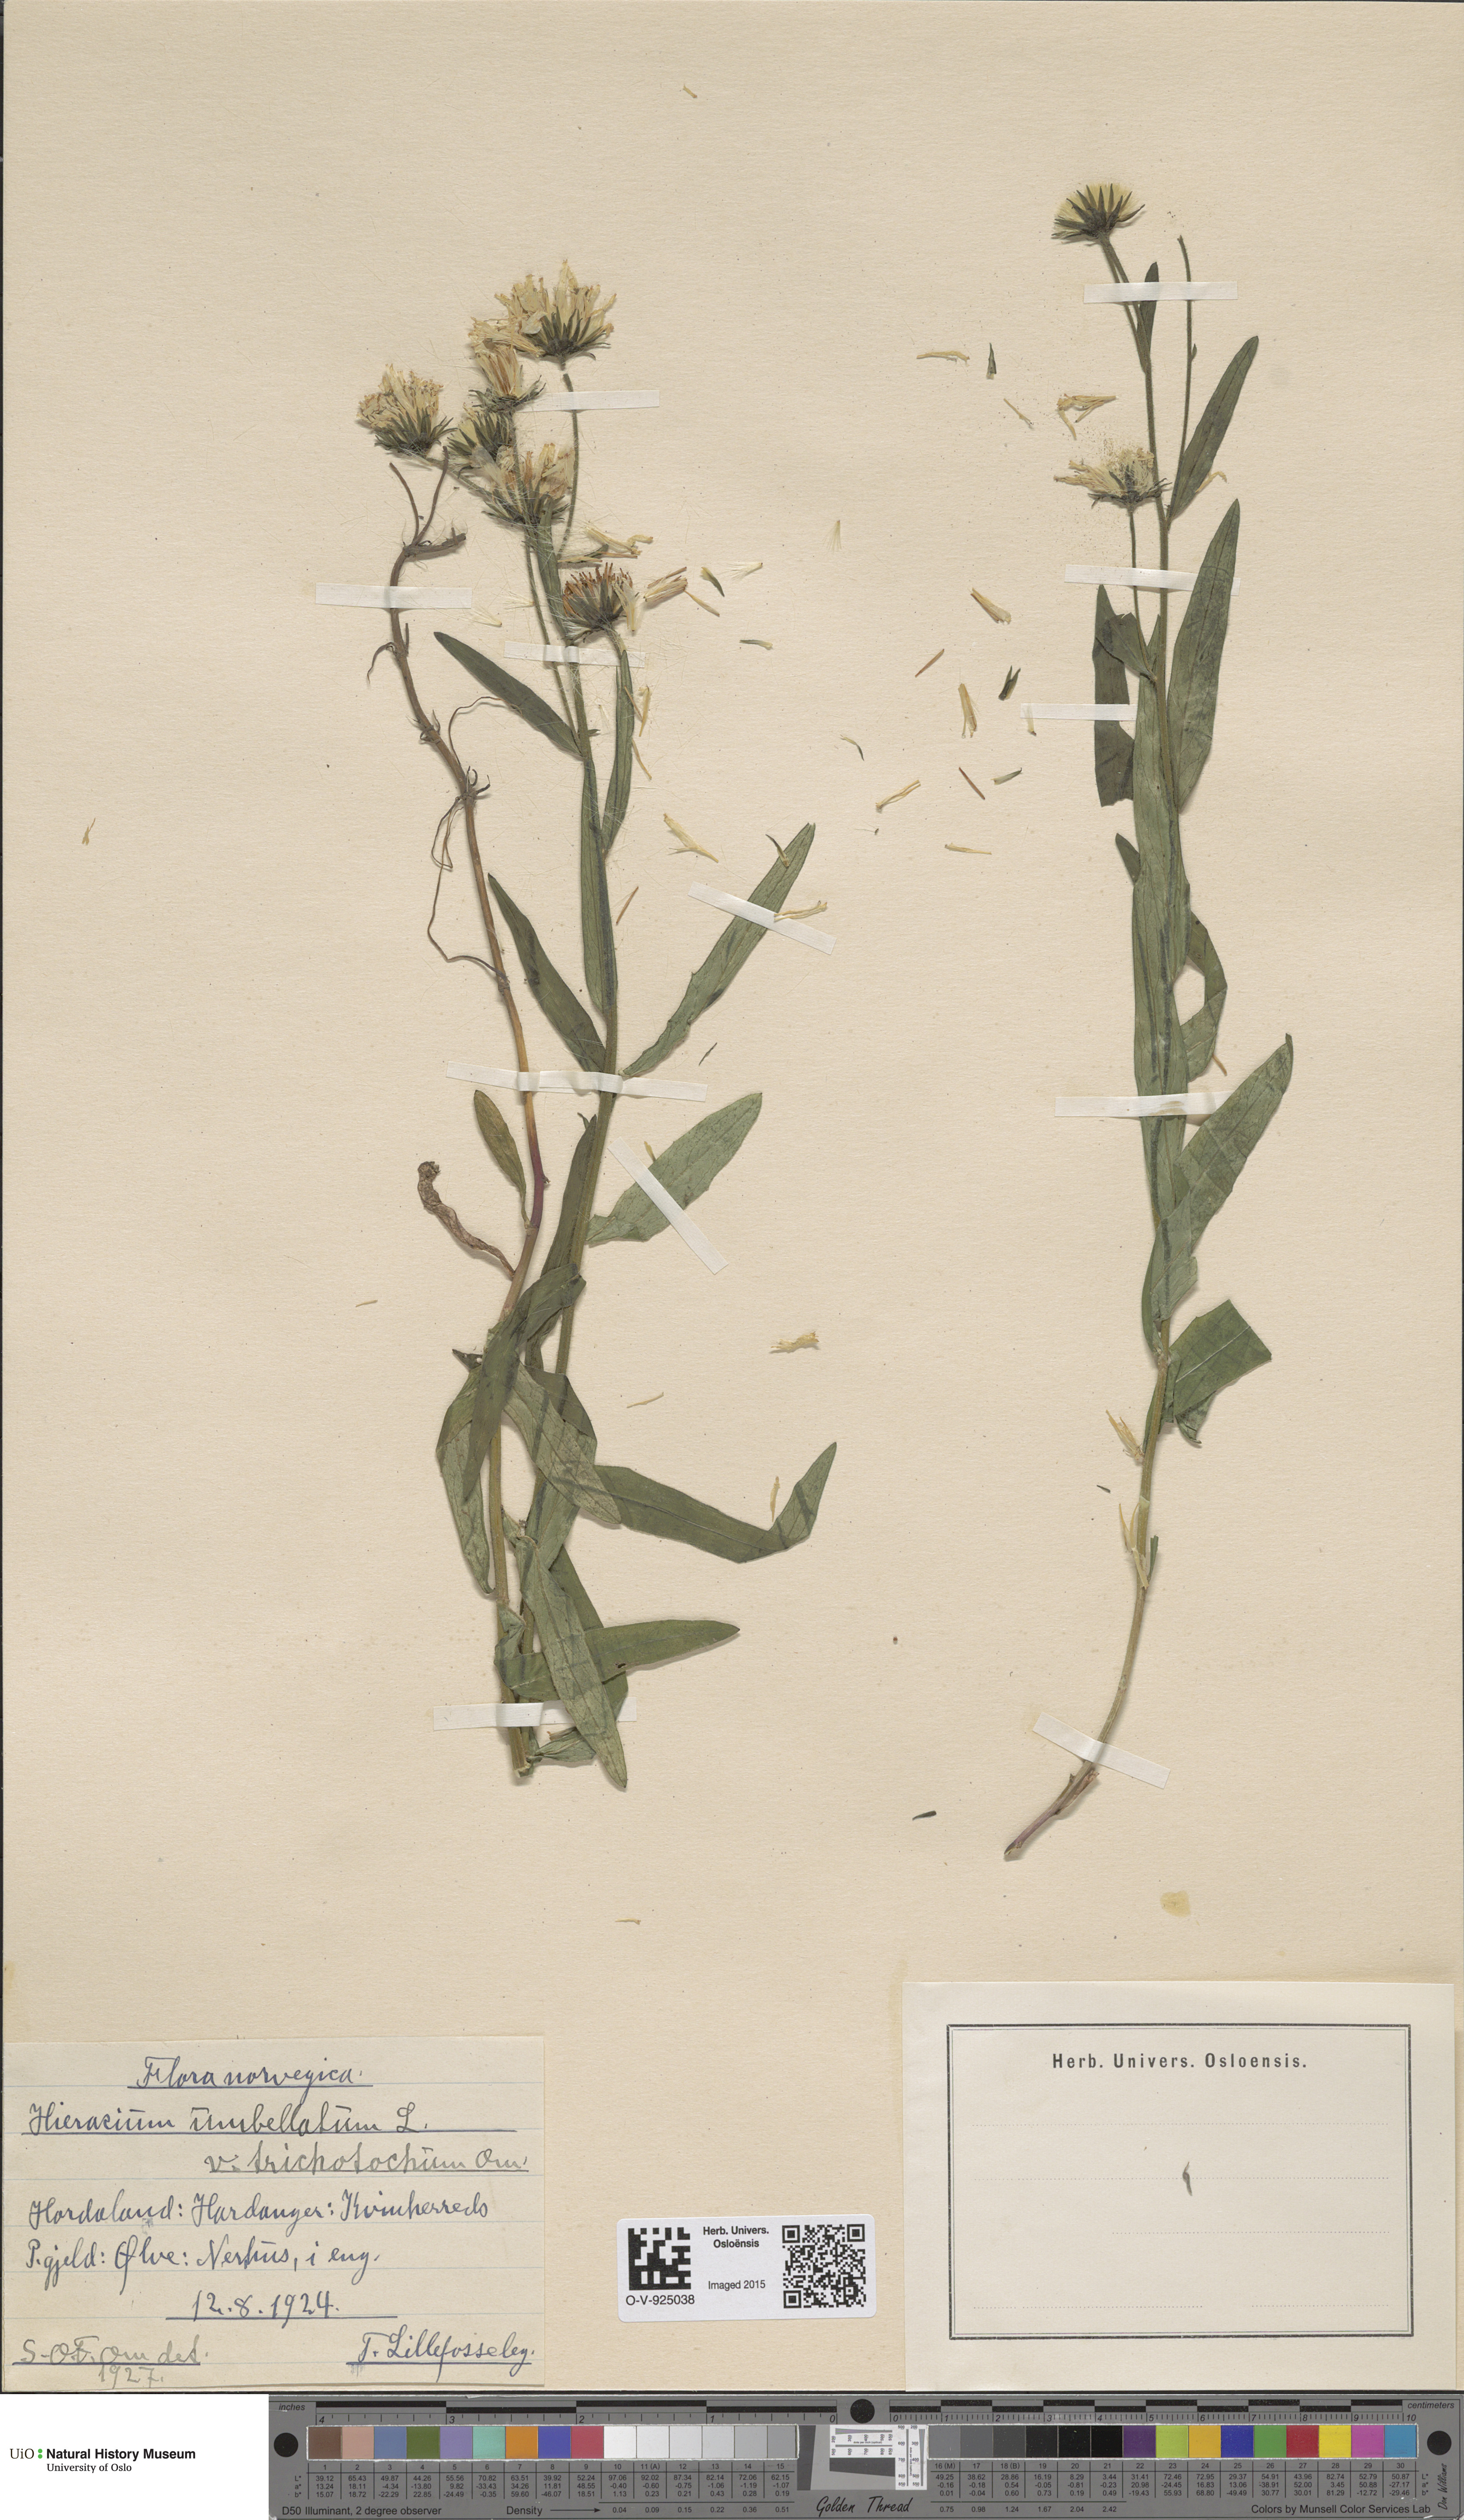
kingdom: Plantae
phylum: Tracheophyta
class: Magnoliopsida
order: Asterales
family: Asteraceae
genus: Hieracium
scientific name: Hieracium umbellatum
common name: Northern hawkweed
